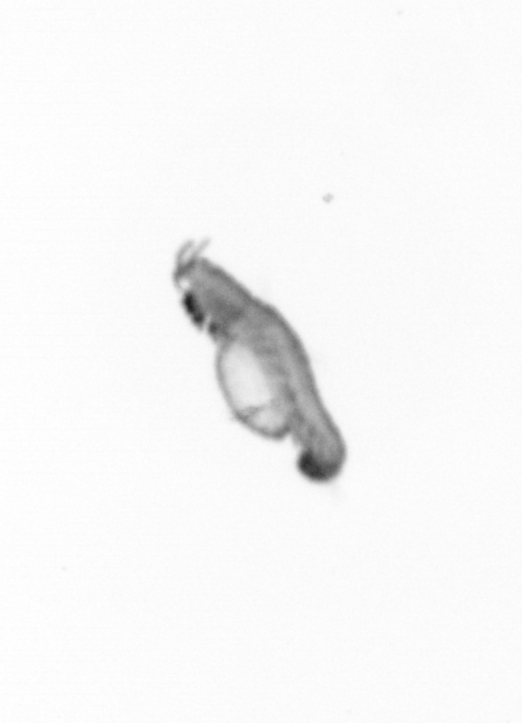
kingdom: Animalia
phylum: Annelida
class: Polychaeta
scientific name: Polychaeta
